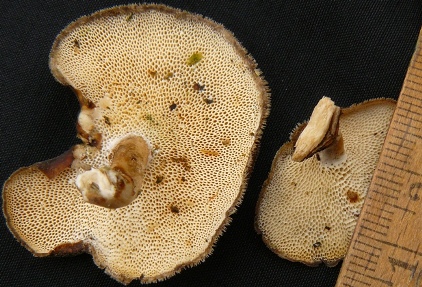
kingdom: Fungi
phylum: Basidiomycota
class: Agaricomycetes
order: Polyporales
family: Polyporaceae
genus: Lentinus
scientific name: Lentinus brumalis
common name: vinter-stilkporesvamp
